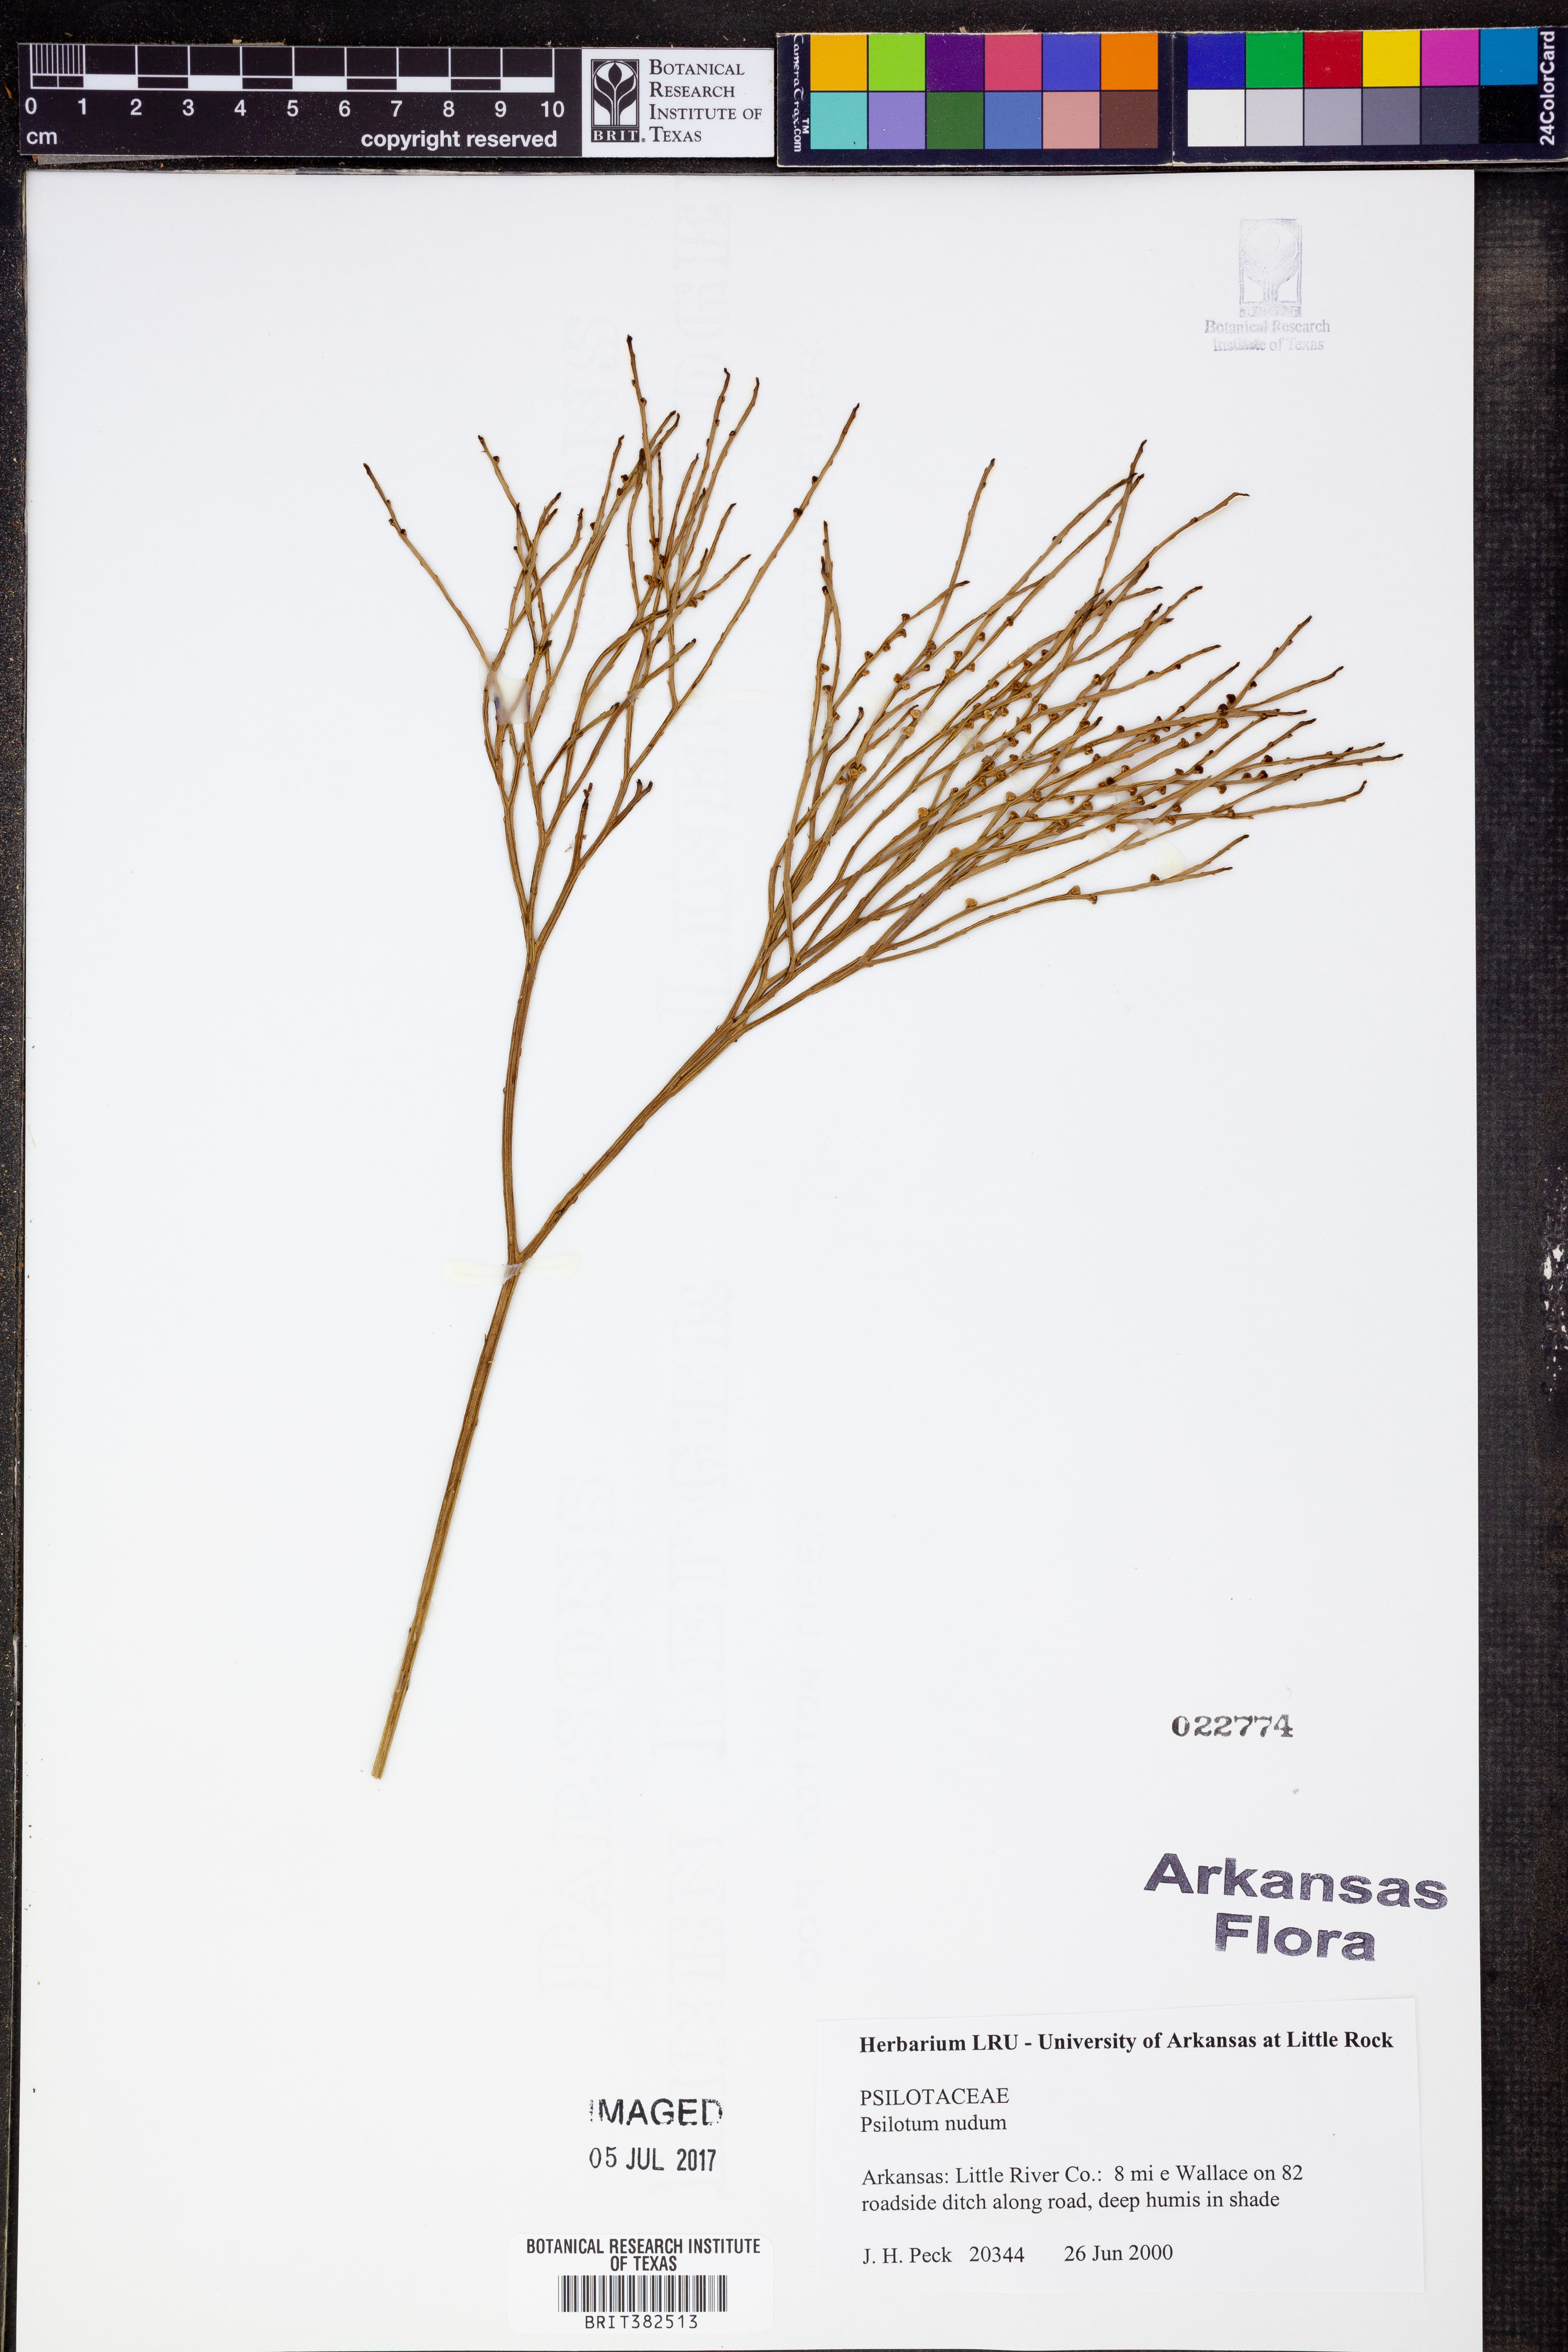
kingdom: Plantae
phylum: Tracheophyta
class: Polypodiopsida
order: Psilotales
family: Psilotaceae
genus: Psilotum
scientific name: Psilotum nudum
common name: Skeleton fork fern
